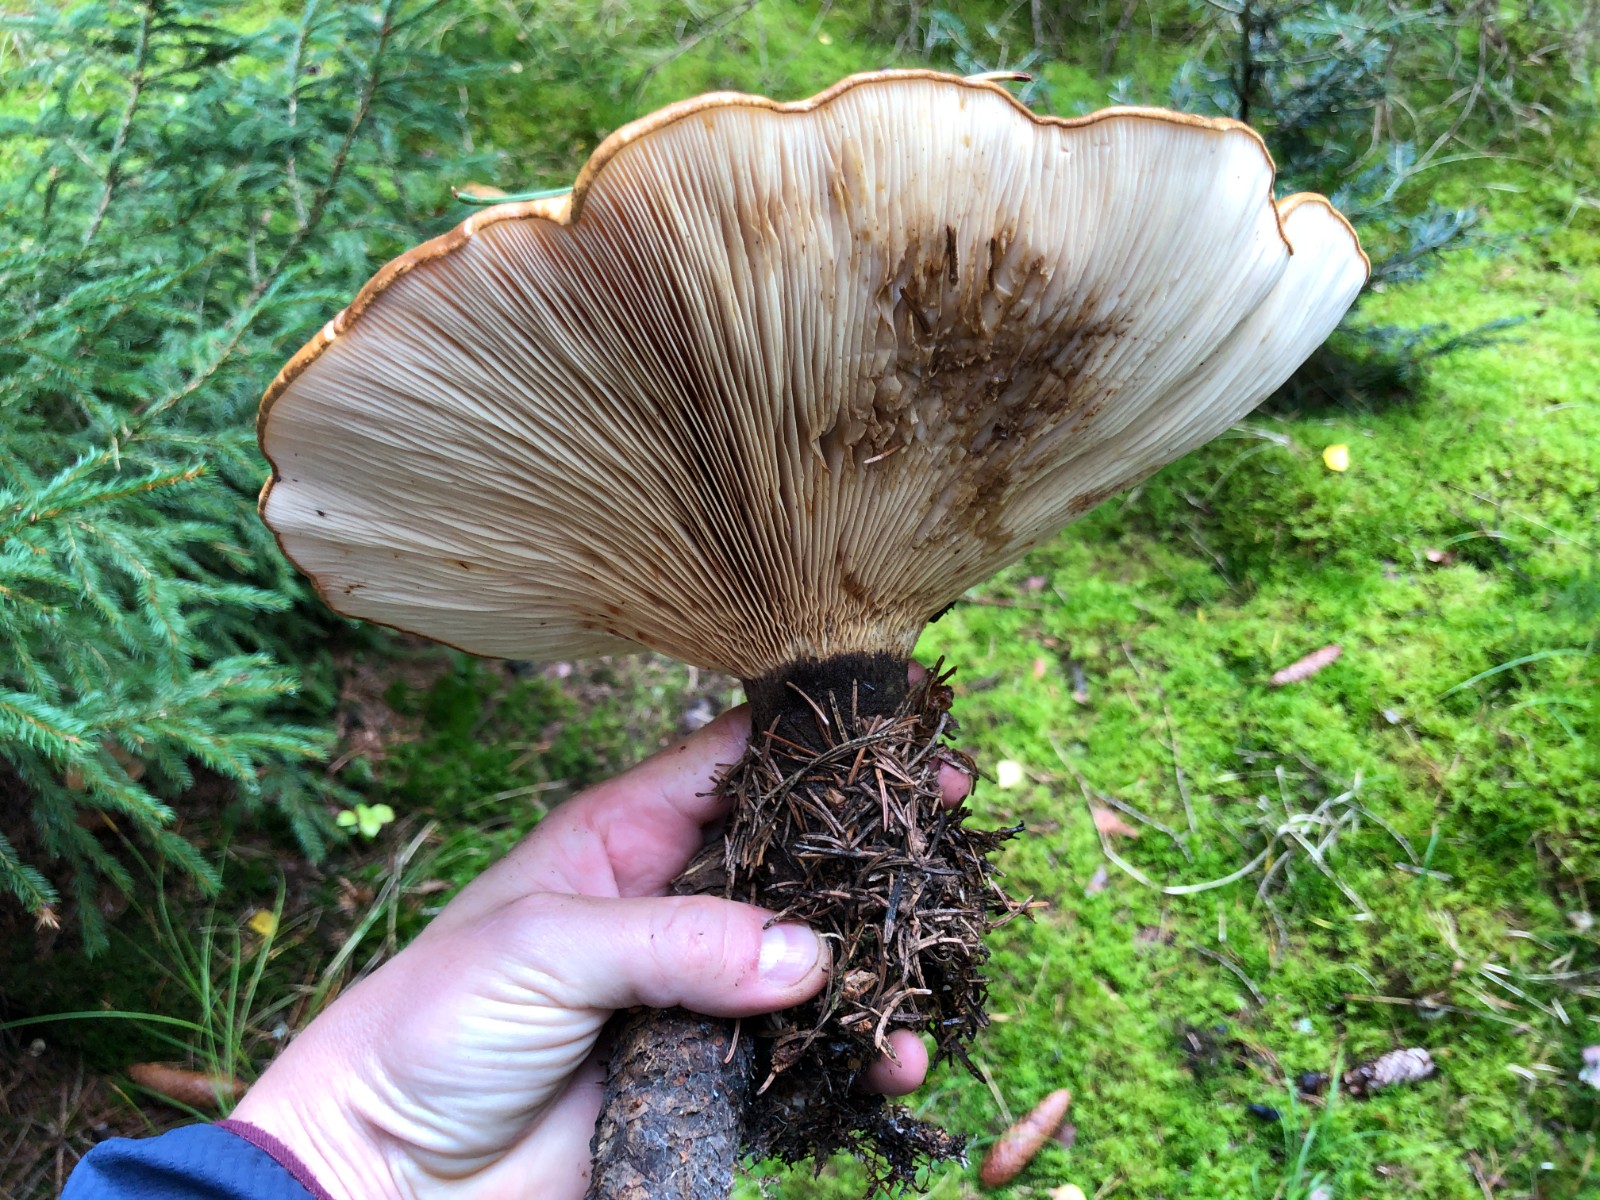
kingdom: Fungi
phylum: Basidiomycota
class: Agaricomycetes
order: Boletales
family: Tapinellaceae
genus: Tapinella
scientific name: Tapinella atrotomentosa
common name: sortfiltet viftesvamp
